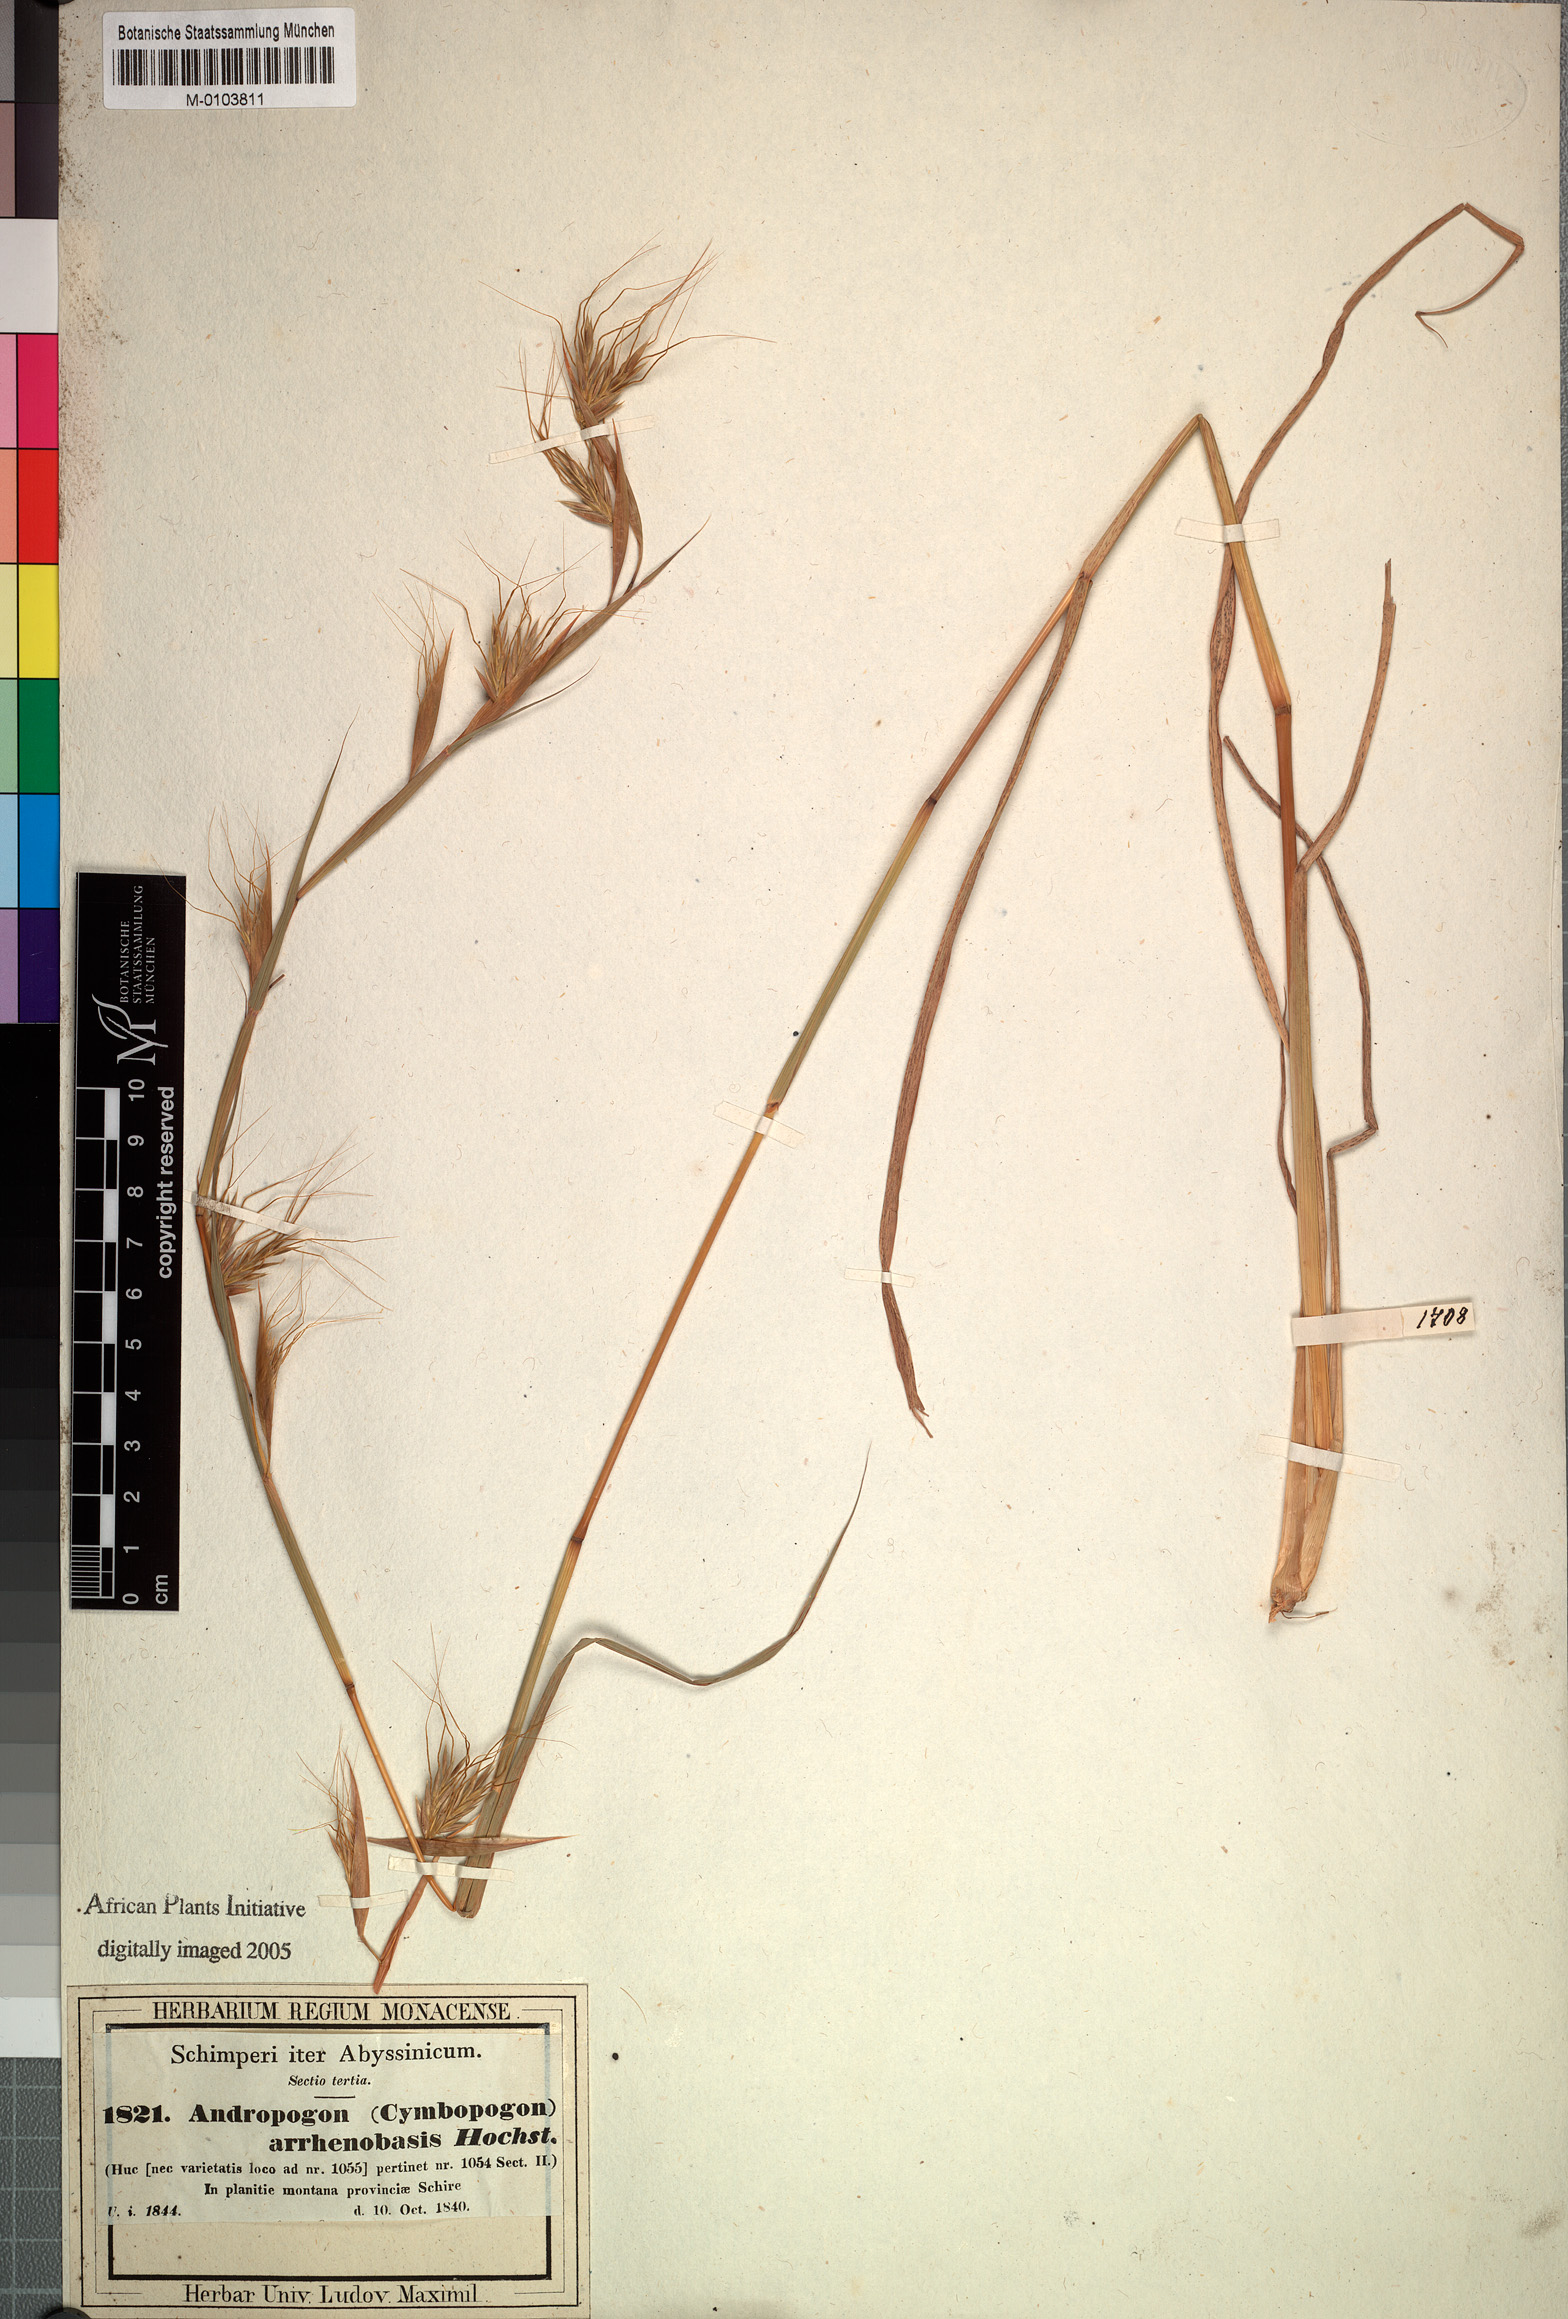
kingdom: Plantae
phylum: Tracheophyta
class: Liliopsida
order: Poales
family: Poaceae
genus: Hyparrhenia
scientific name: Hyparrhenia papillipes
